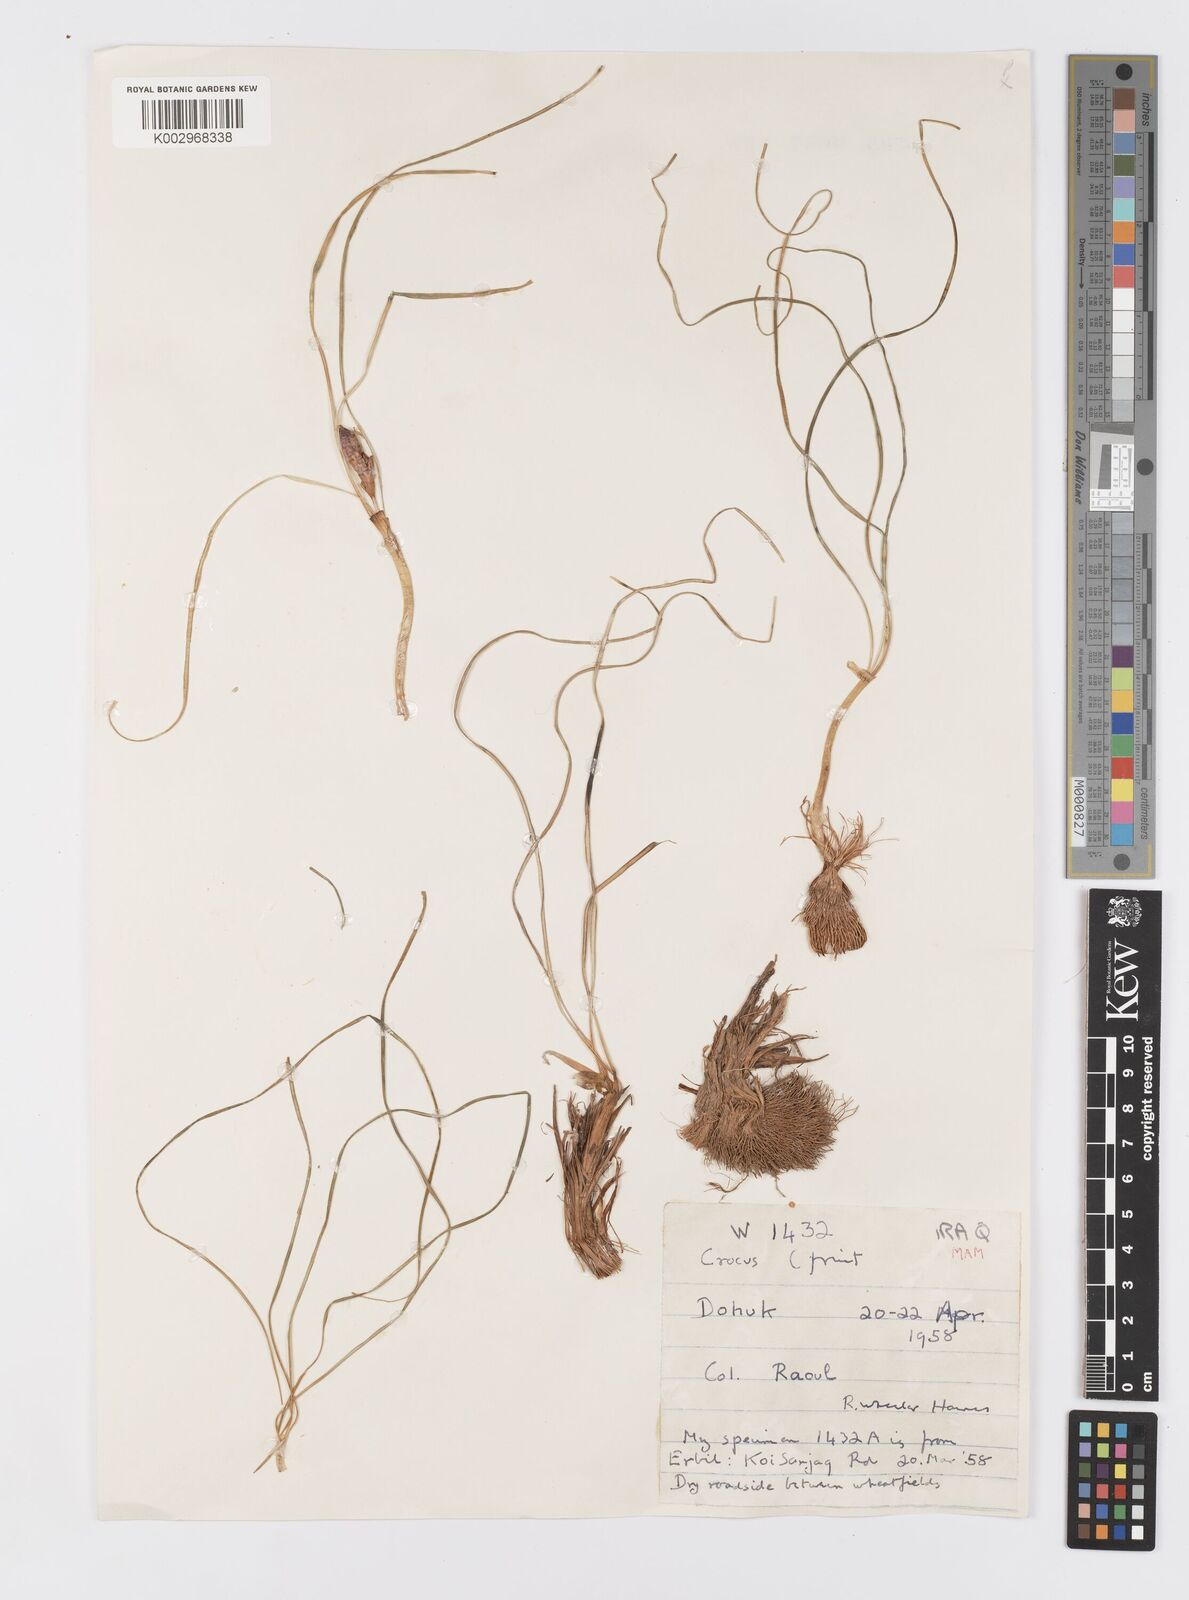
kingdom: Plantae
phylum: Tracheophyta
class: Liliopsida
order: Asparagales
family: Iridaceae
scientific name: Iridaceae
